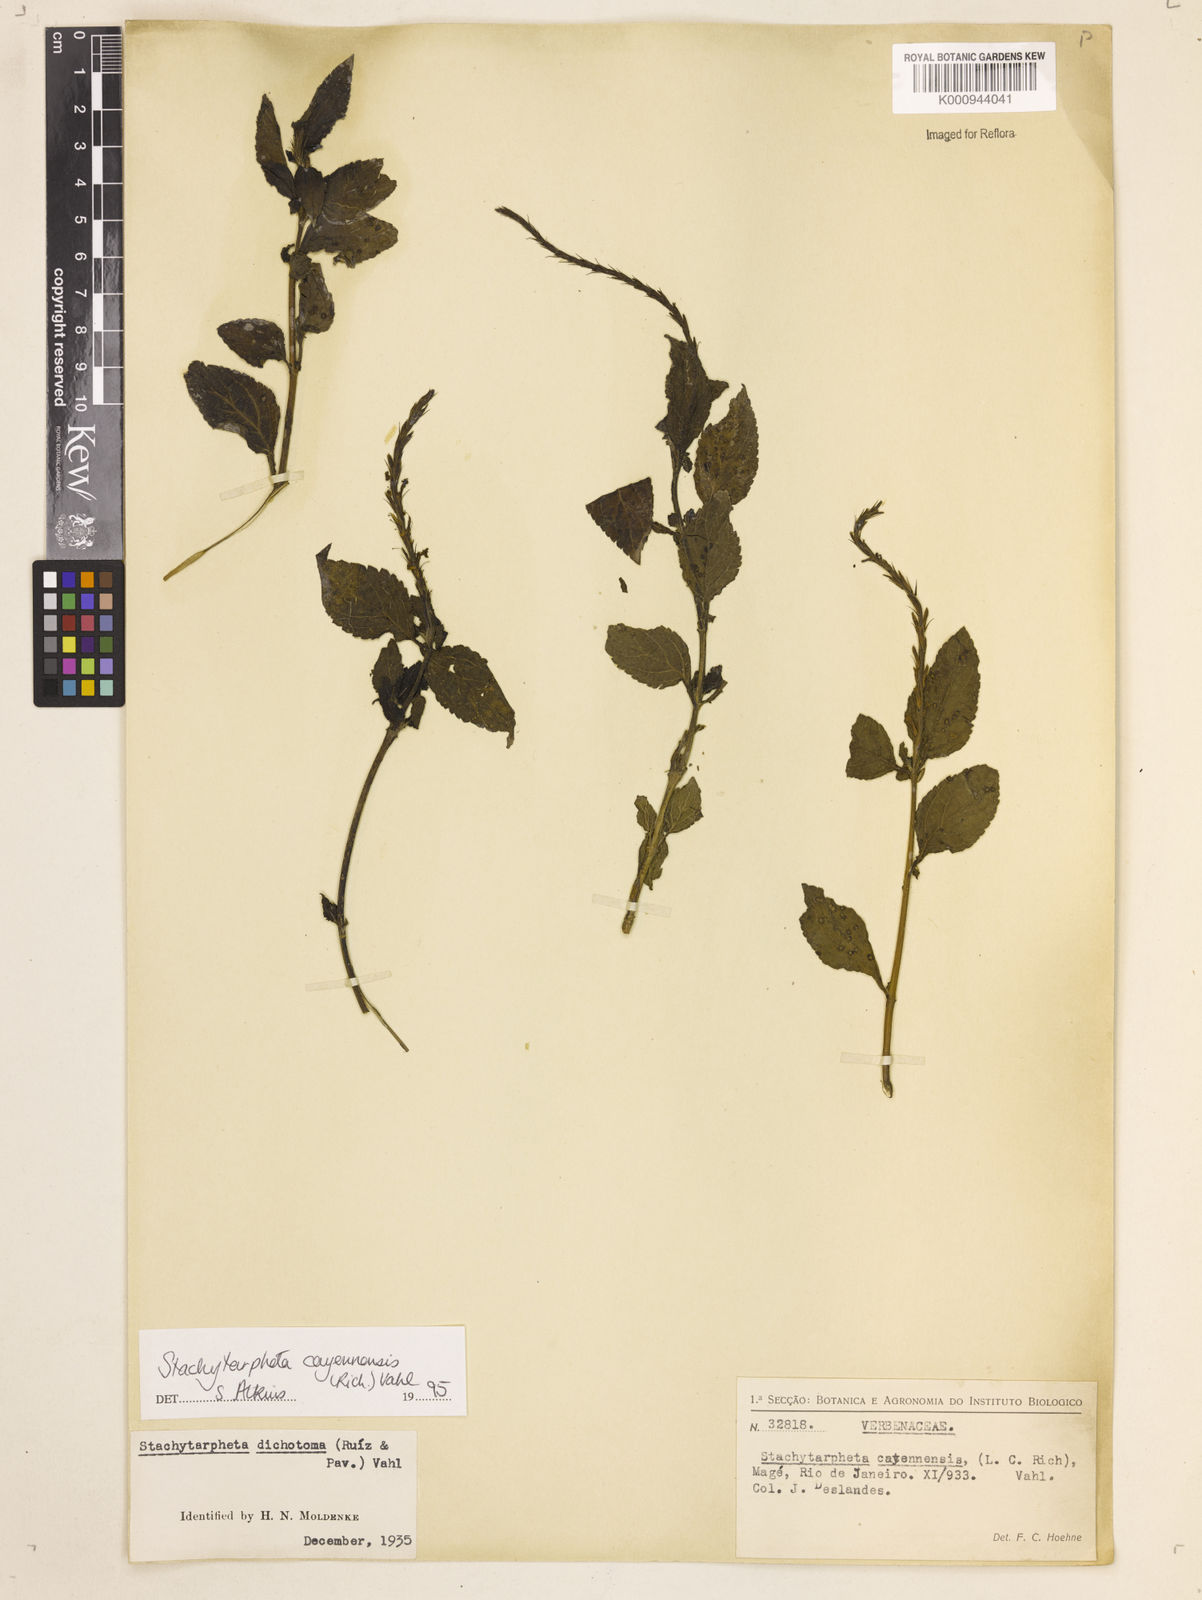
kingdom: Plantae
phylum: Tracheophyta
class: Magnoliopsida
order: Lamiales
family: Verbenaceae
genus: Aloysia
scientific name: Aloysia
